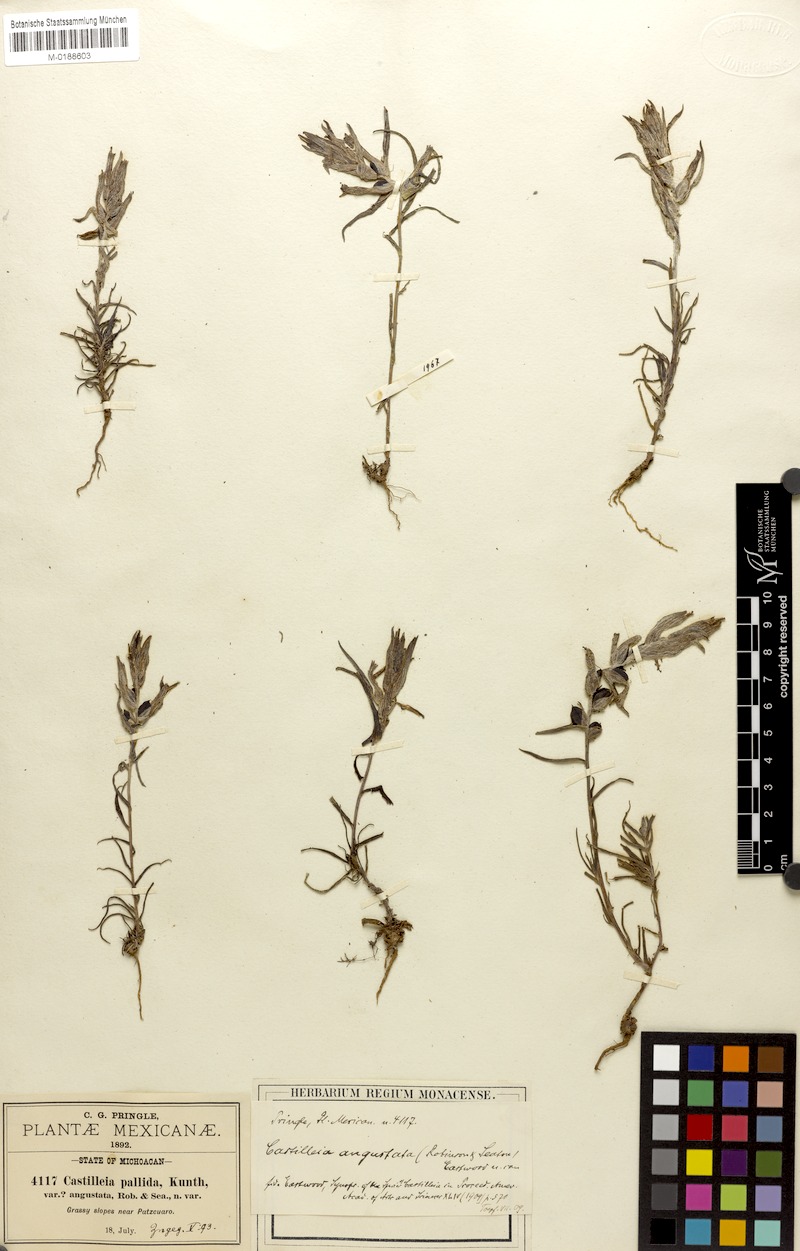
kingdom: Plantae
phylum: Tracheophyta
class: Magnoliopsida
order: Lamiales
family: Orobanchaceae
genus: Castilleja
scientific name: Castilleja angustata
